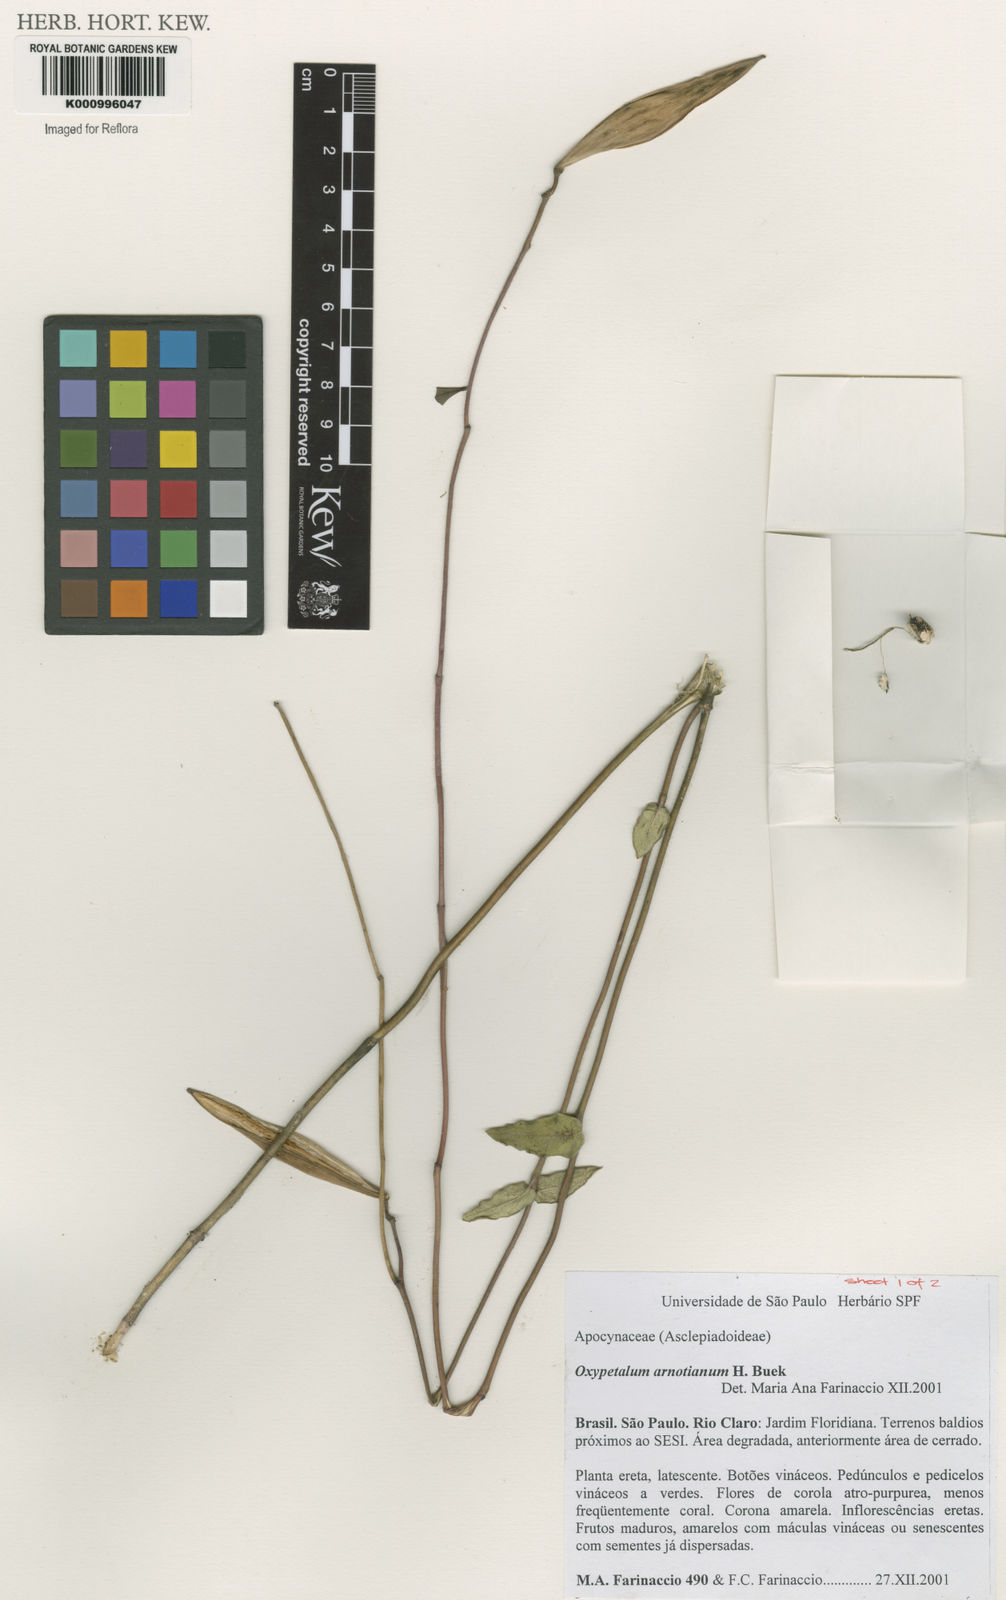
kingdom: Plantae
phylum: Tracheophyta
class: Magnoliopsida
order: Gentianales
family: Apocynaceae
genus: Oxypetalum
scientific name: Oxypetalum
